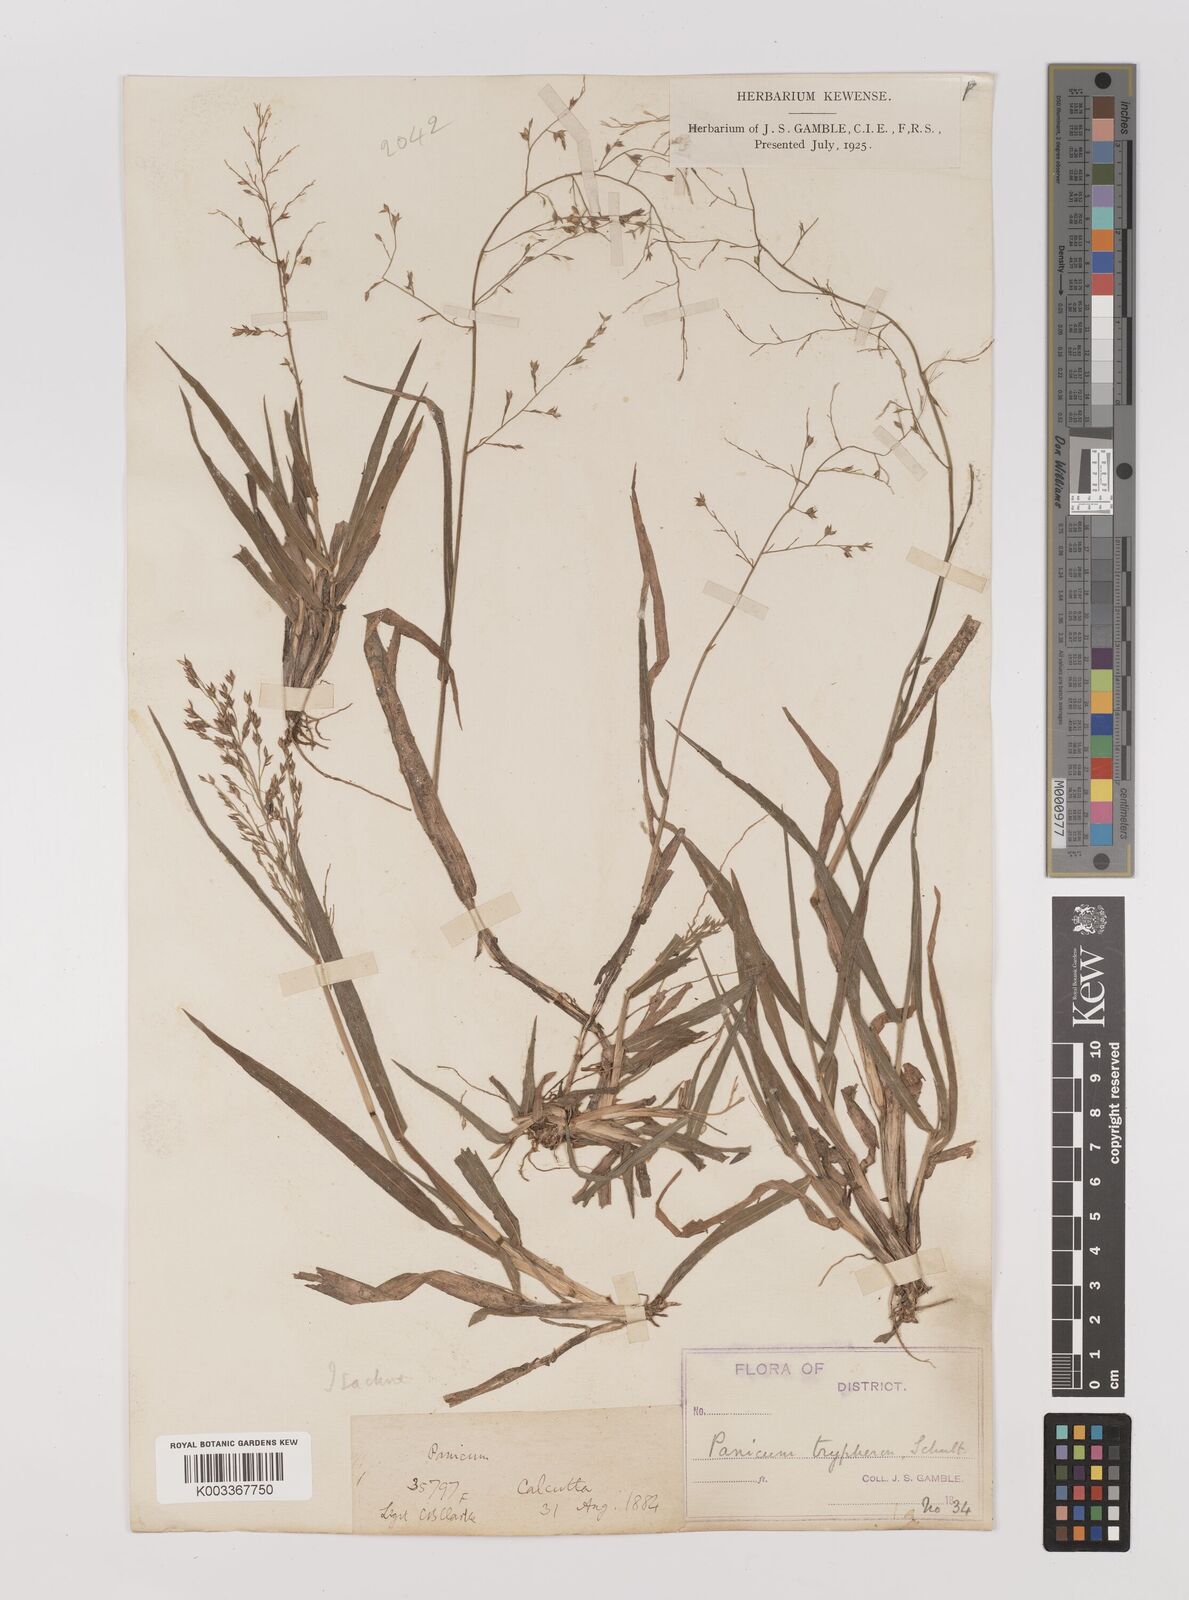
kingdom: Plantae
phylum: Tracheophyta
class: Liliopsida
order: Poales
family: Poaceae
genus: Panicum
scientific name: Panicum curviflorum
